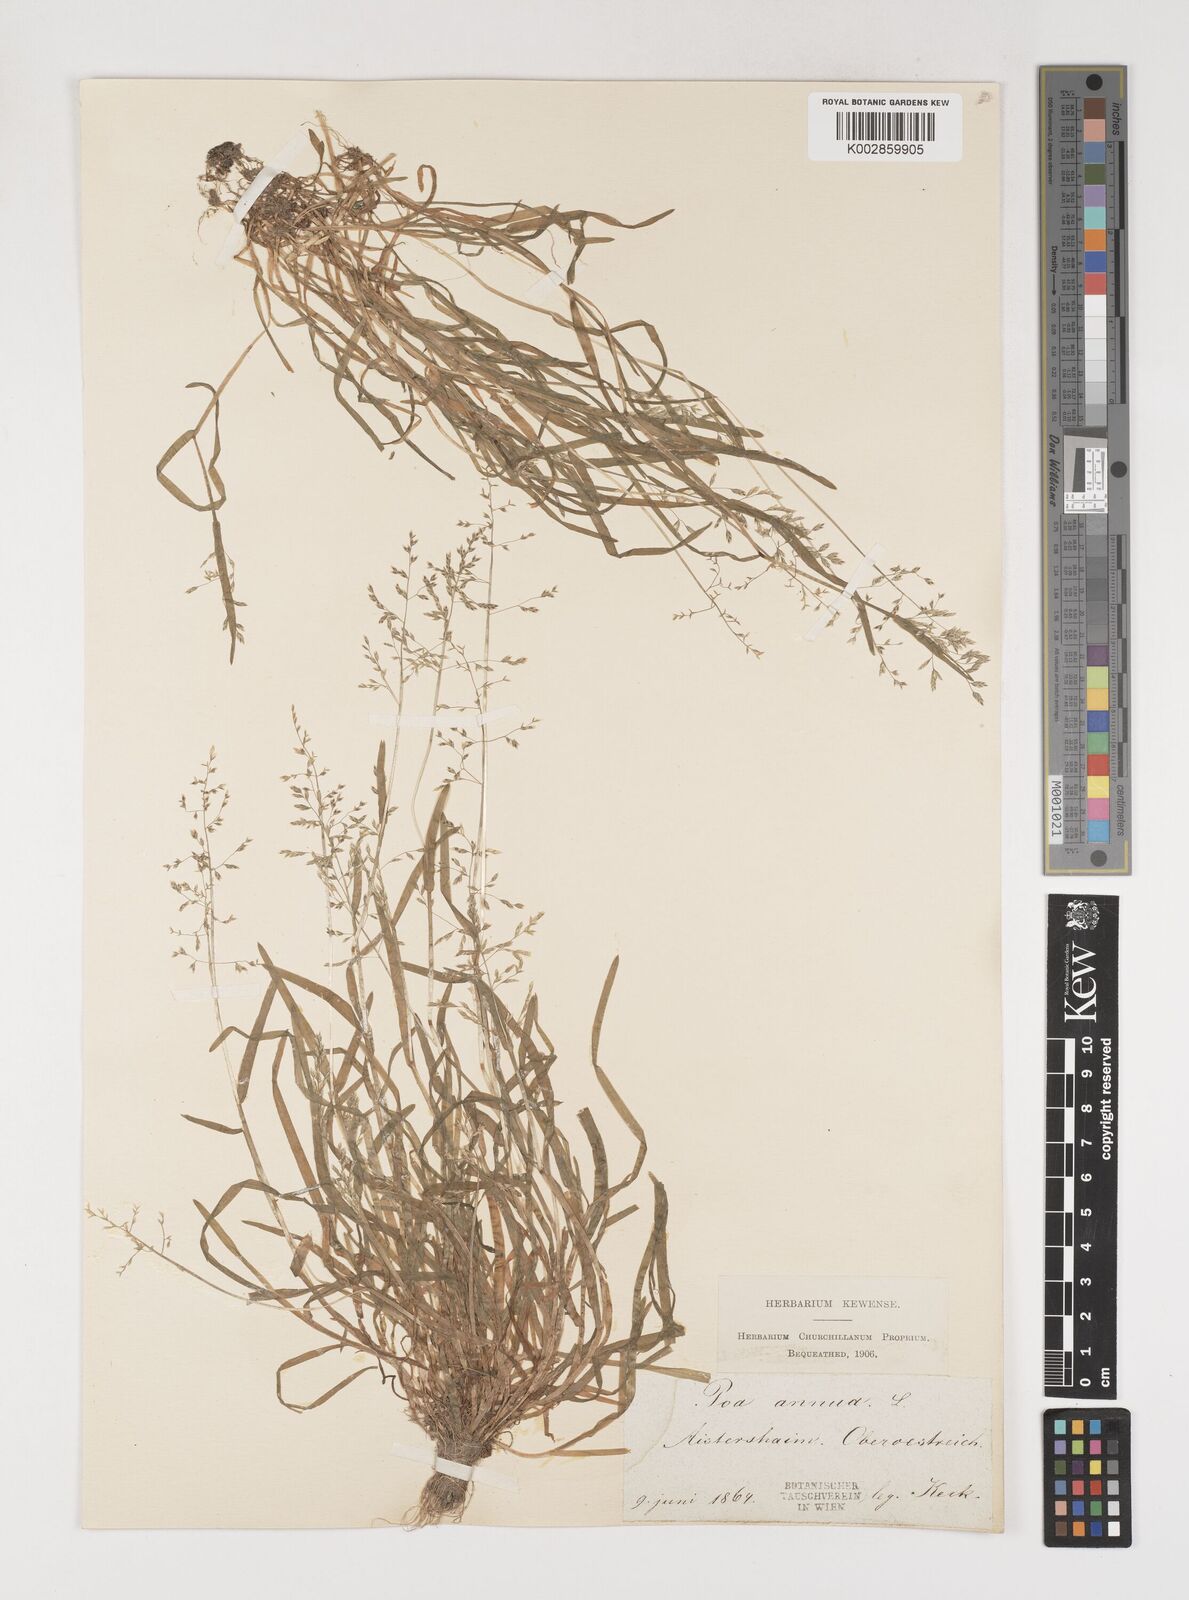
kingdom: Plantae
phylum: Tracheophyta
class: Liliopsida
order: Poales
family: Poaceae
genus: Poa
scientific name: Poa annua
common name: Annual bluegrass
